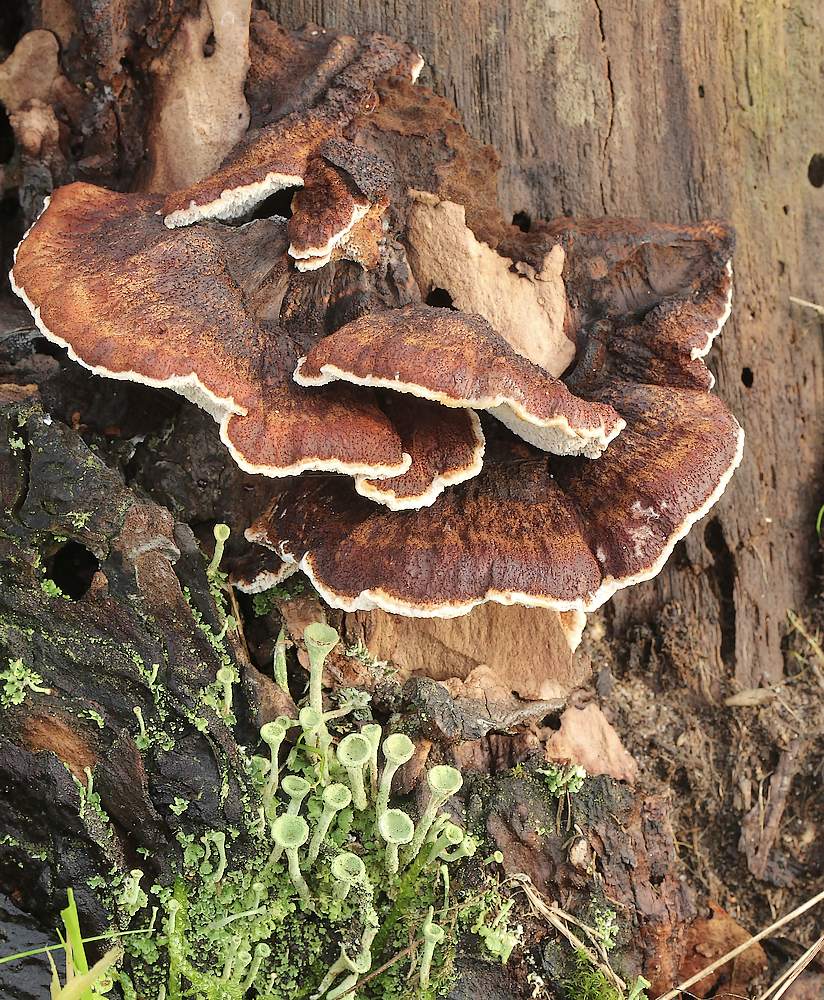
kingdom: Fungi
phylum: Basidiomycota
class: Agaricomycetes
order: Polyporales
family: Ischnodermataceae
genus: Ischnoderma
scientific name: Ischnoderma benzoinum
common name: gran-tjæreporesvamp
